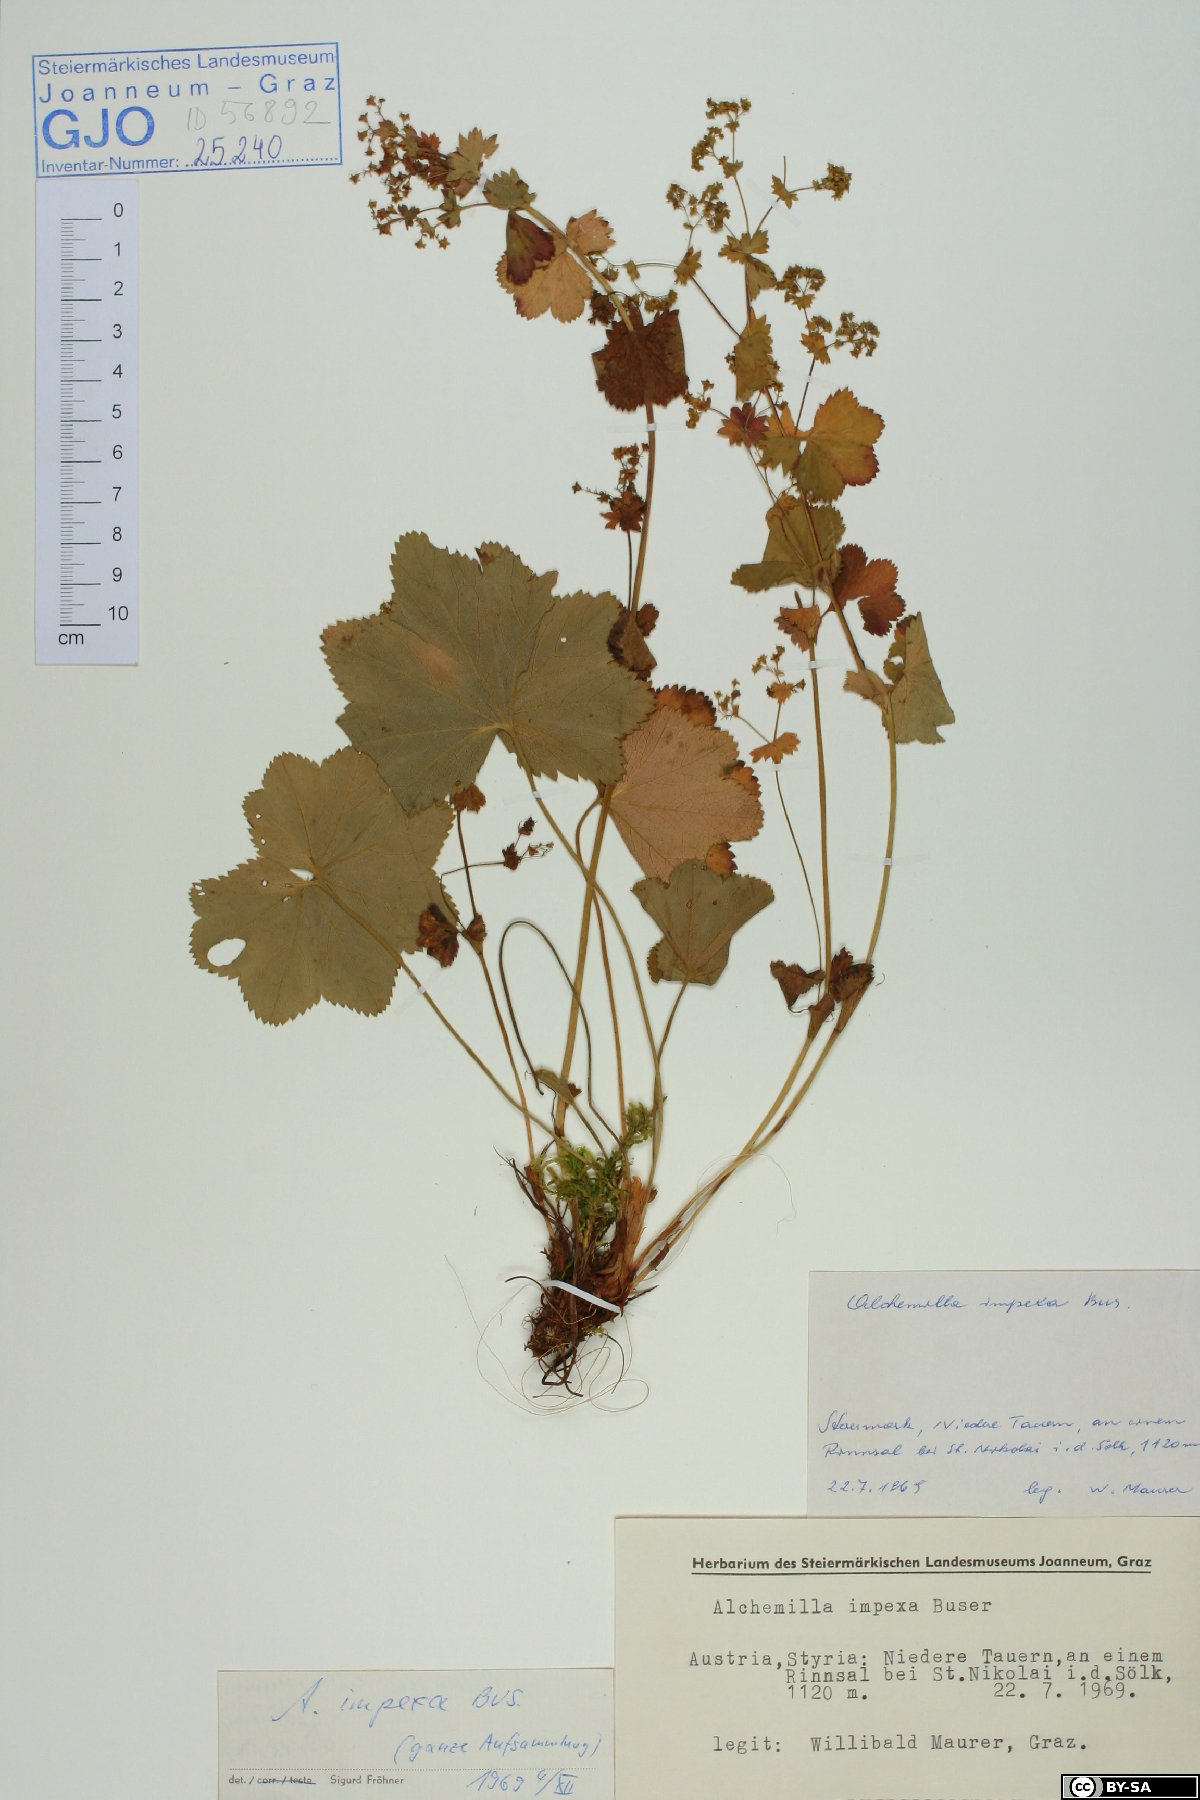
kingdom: Plantae
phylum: Tracheophyta
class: Magnoliopsida
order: Rosales
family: Rosaceae
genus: Alchemilla
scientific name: Alchemilla impexa
